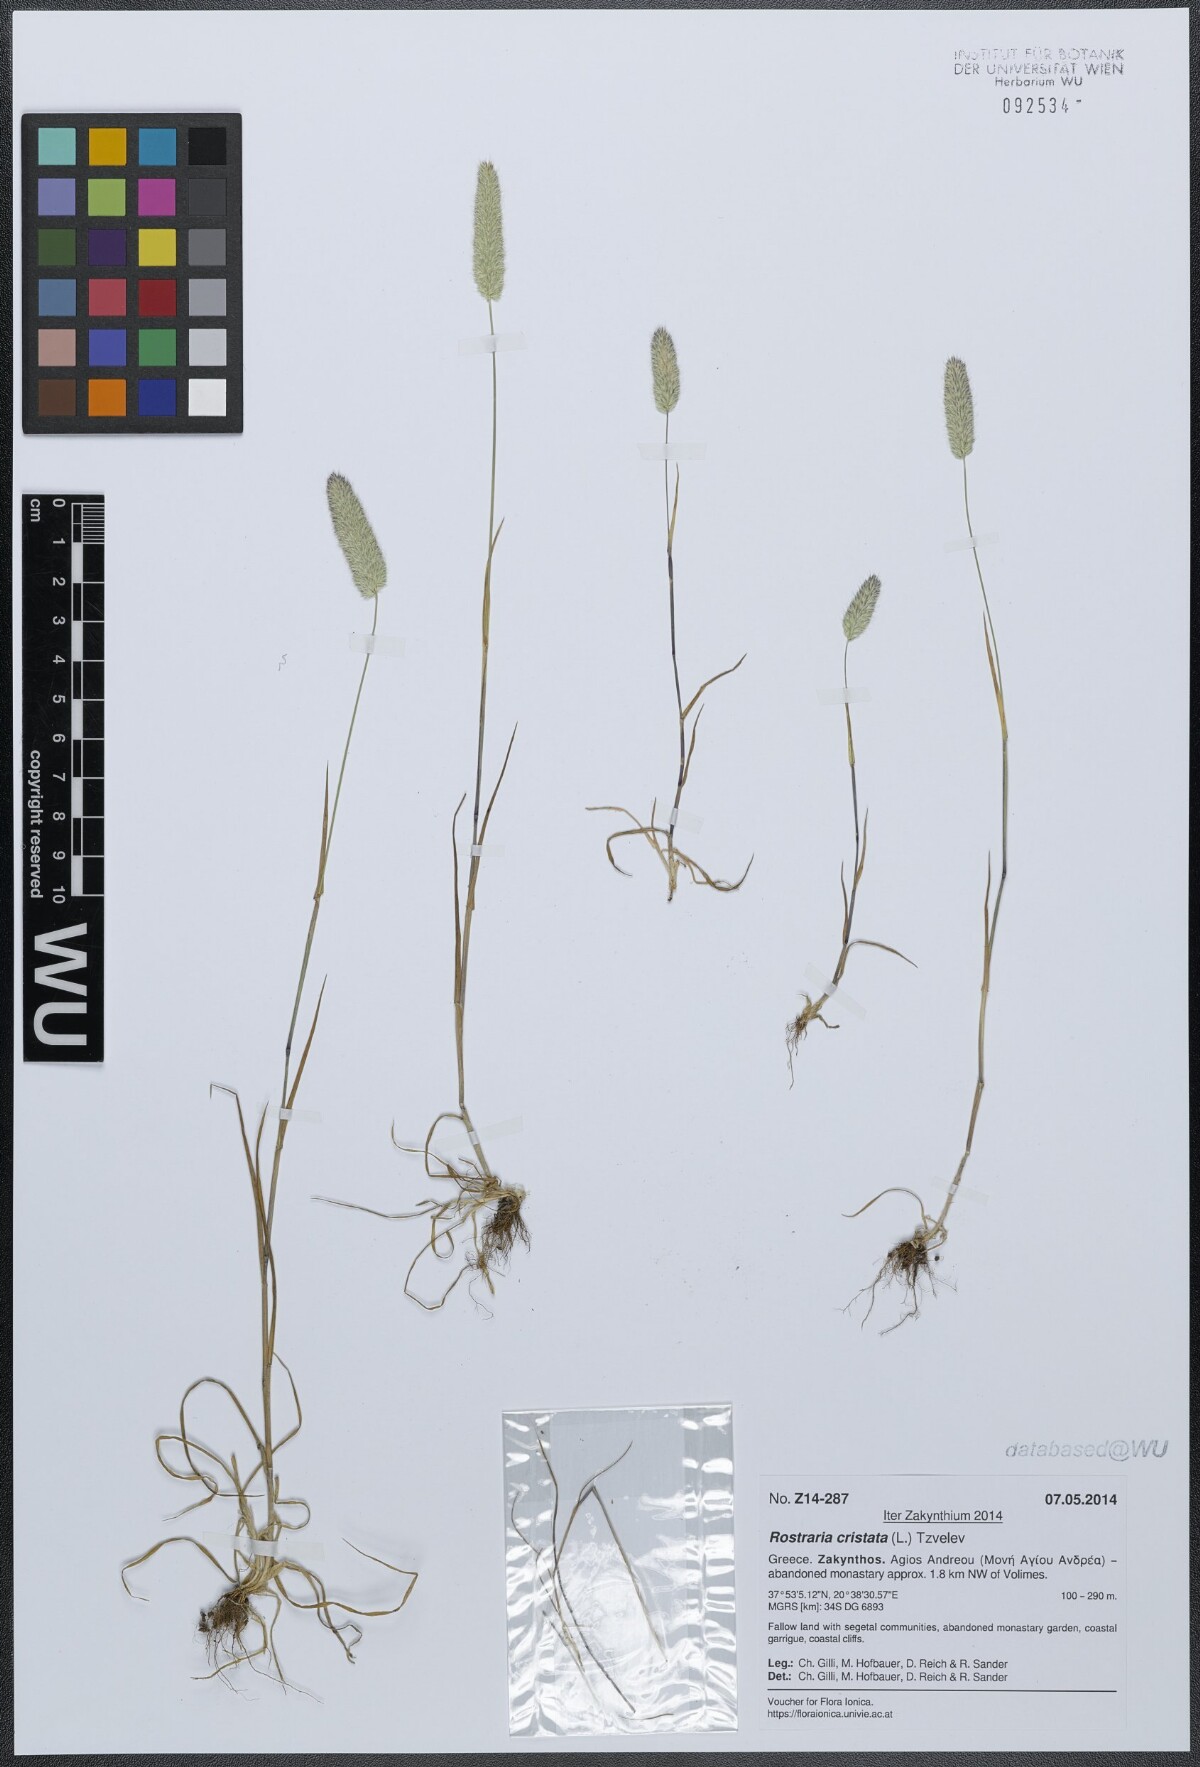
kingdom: Plantae
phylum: Tracheophyta
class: Liliopsida
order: Poales
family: Poaceae
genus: Rostraria
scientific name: Rostraria cristata
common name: Mediterranean hair-grass
